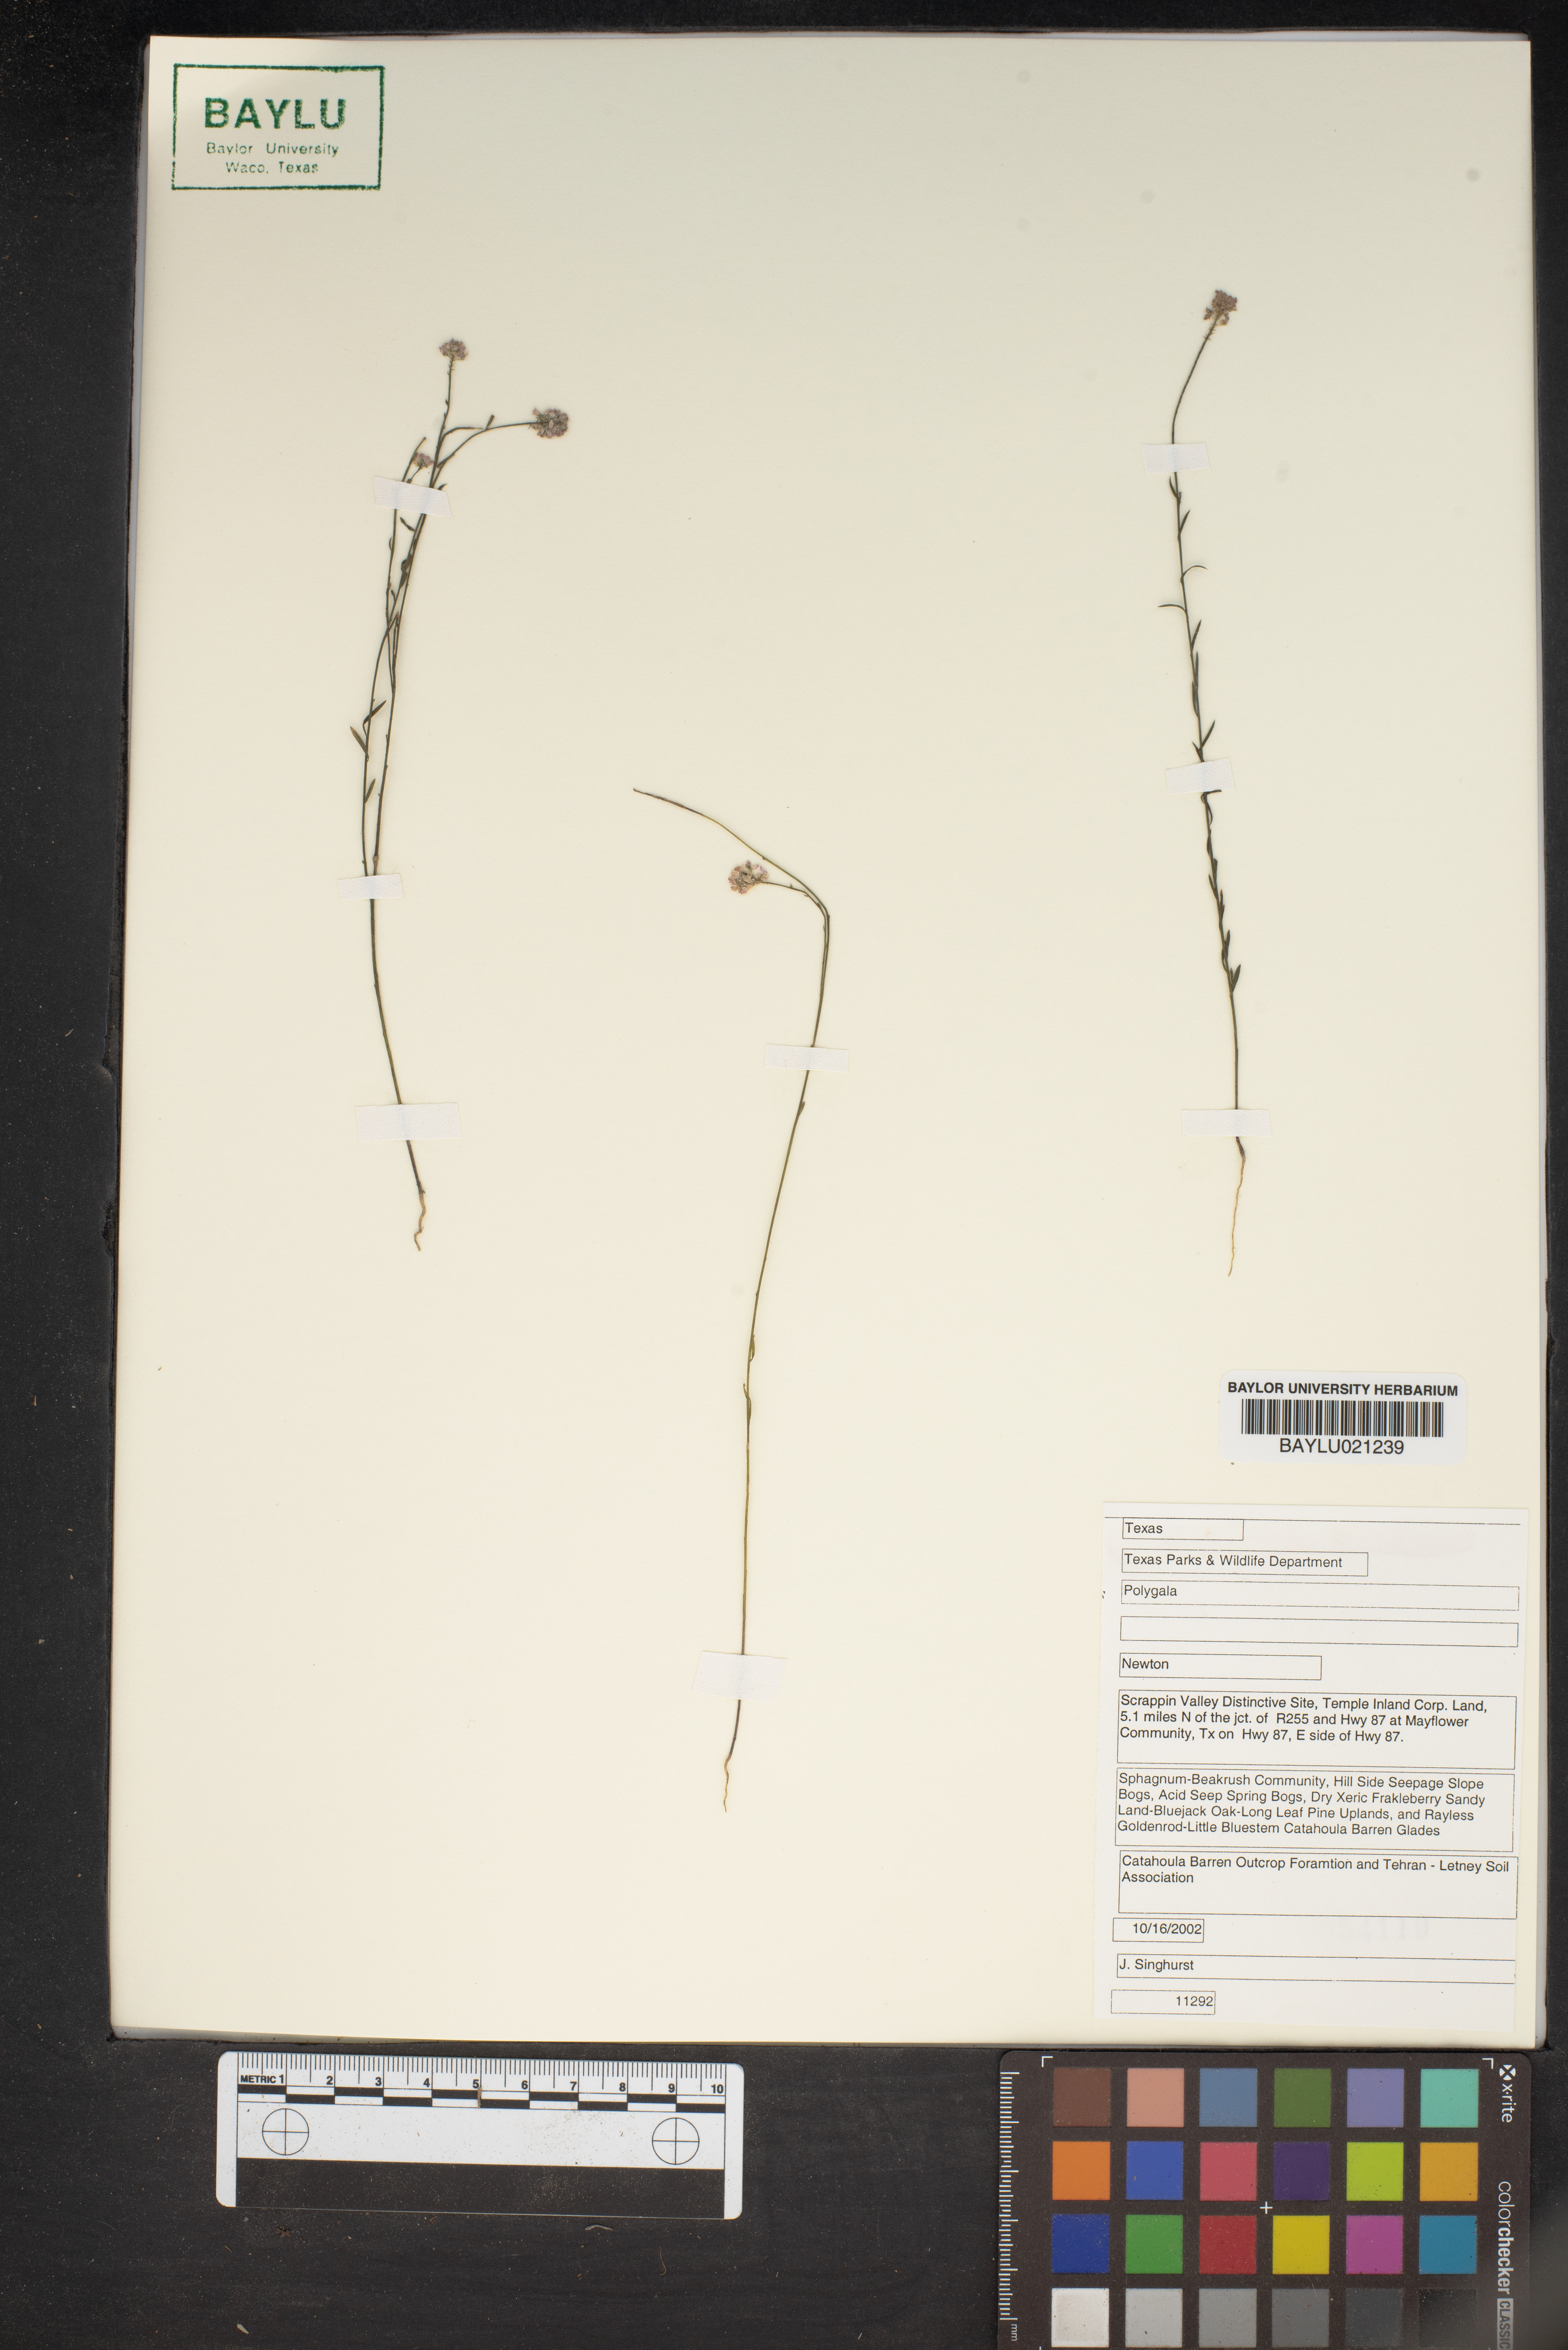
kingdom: Plantae
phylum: Tracheophyta
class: Magnoliopsida
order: Fabales
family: Polygalaceae
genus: Polygala
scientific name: Polygala
